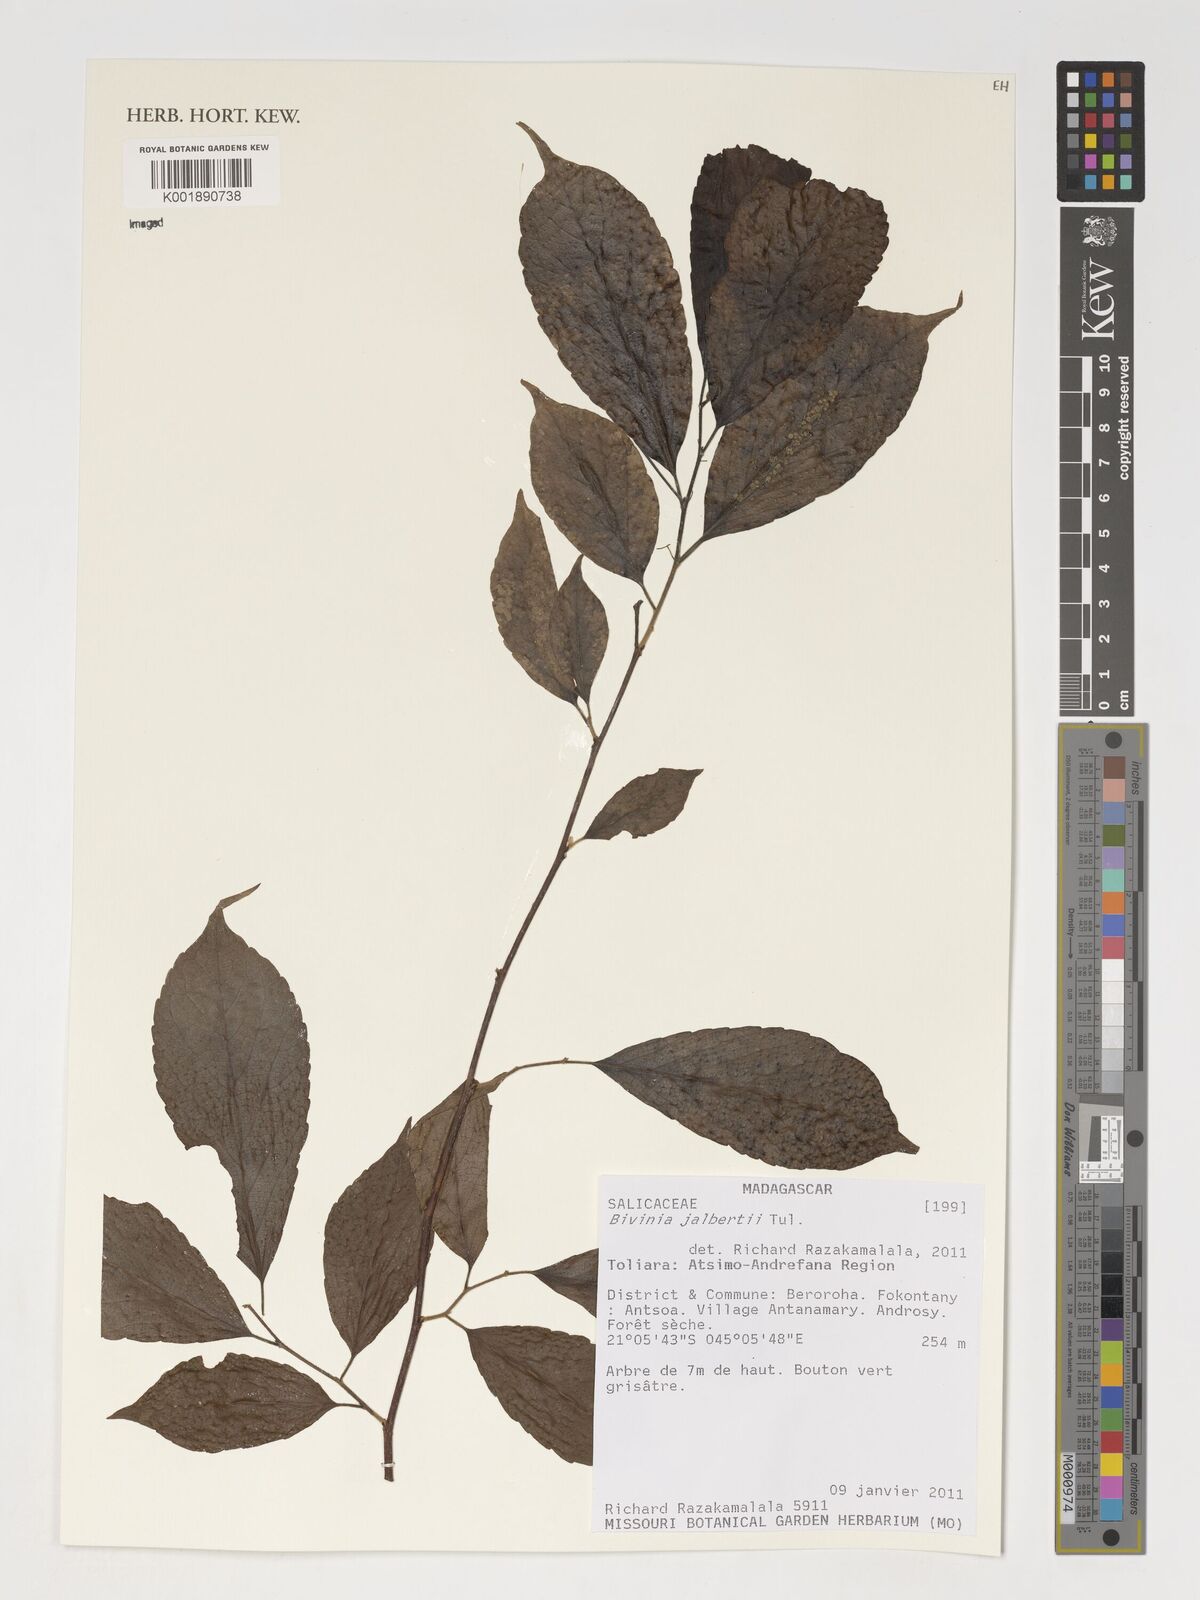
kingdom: Plantae
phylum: Tracheophyta
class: Magnoliopsida
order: Malpighiales
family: Salicaceae
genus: Bivinia
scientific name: Bivinia jalbertii
